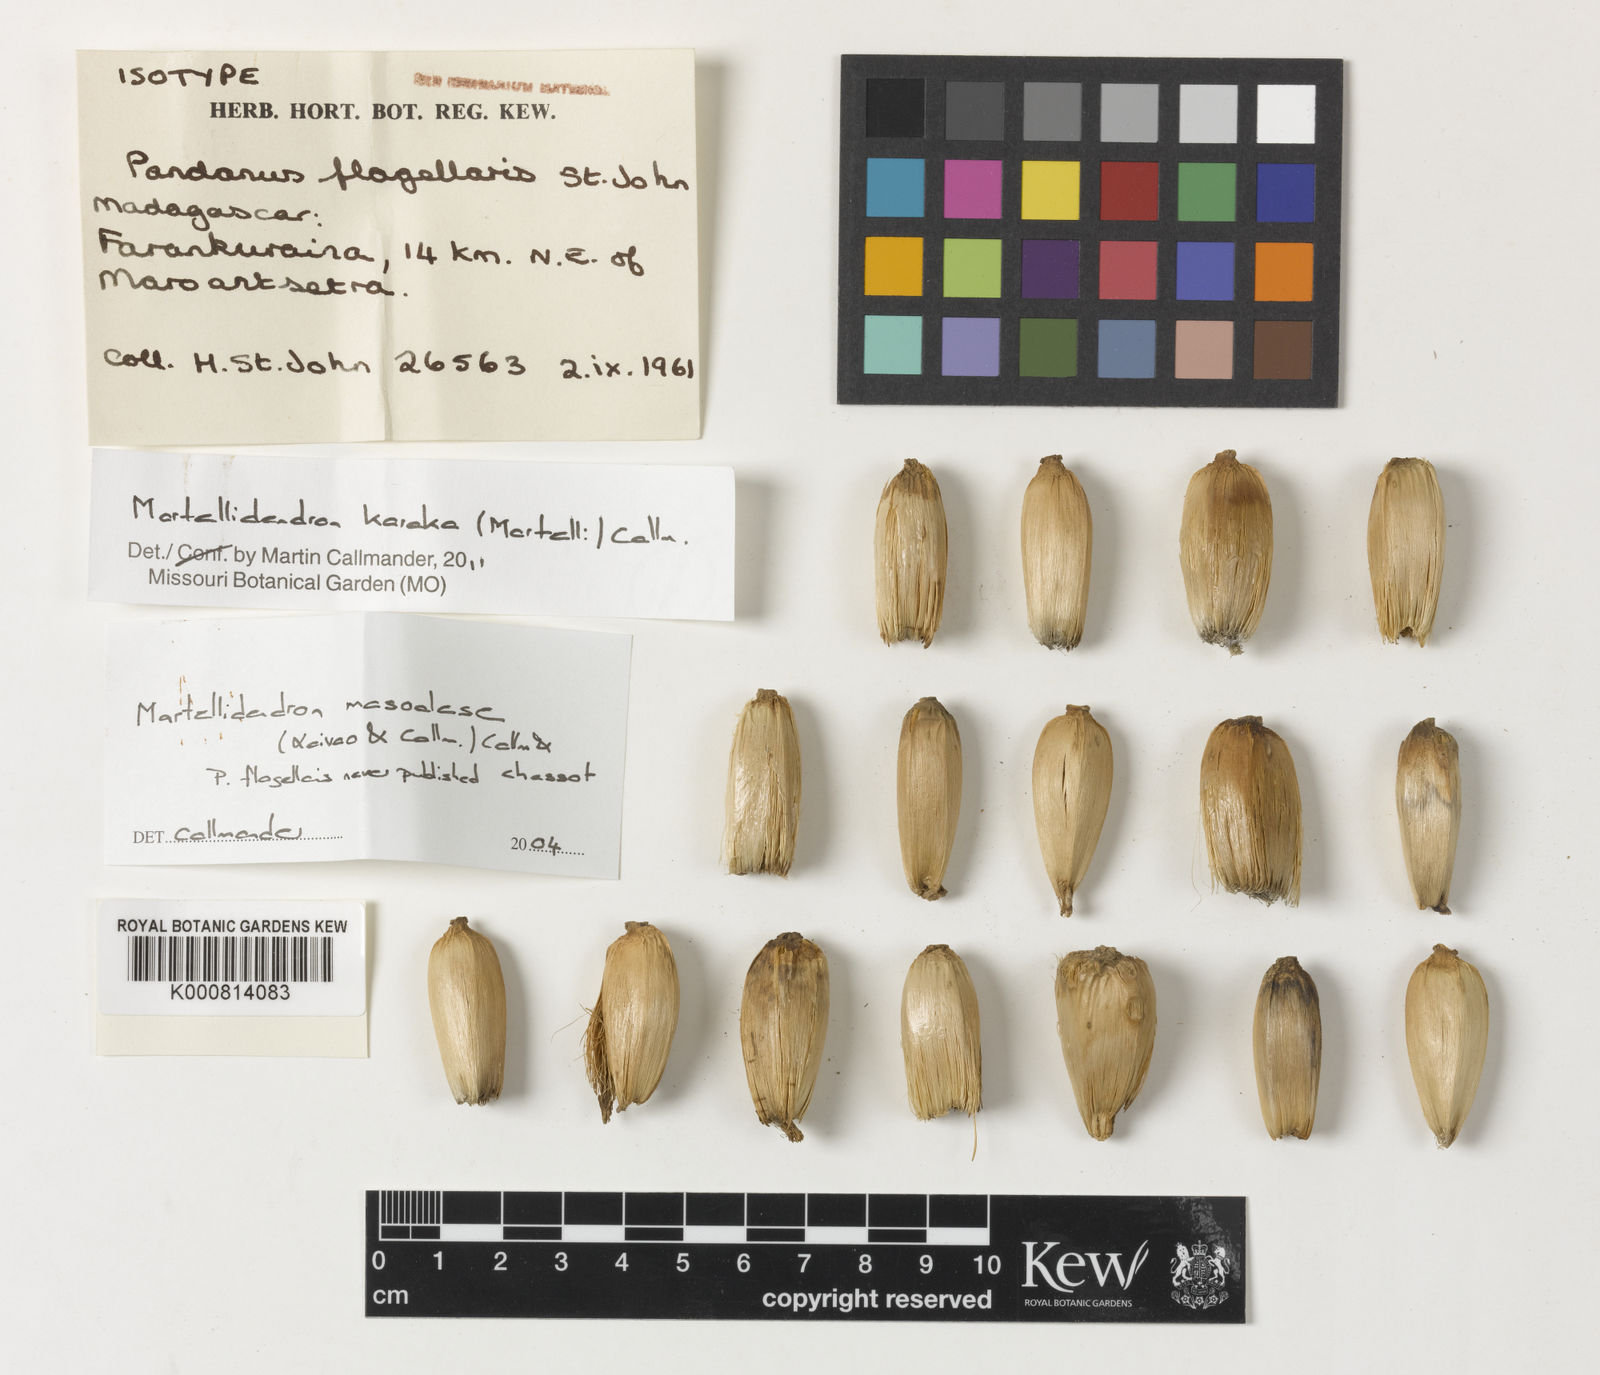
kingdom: Plantae
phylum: Tracheophyta
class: Liliopsida
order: Pandanales
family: Pandanaceae
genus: Martellidendron
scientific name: Martellidendron karaka
